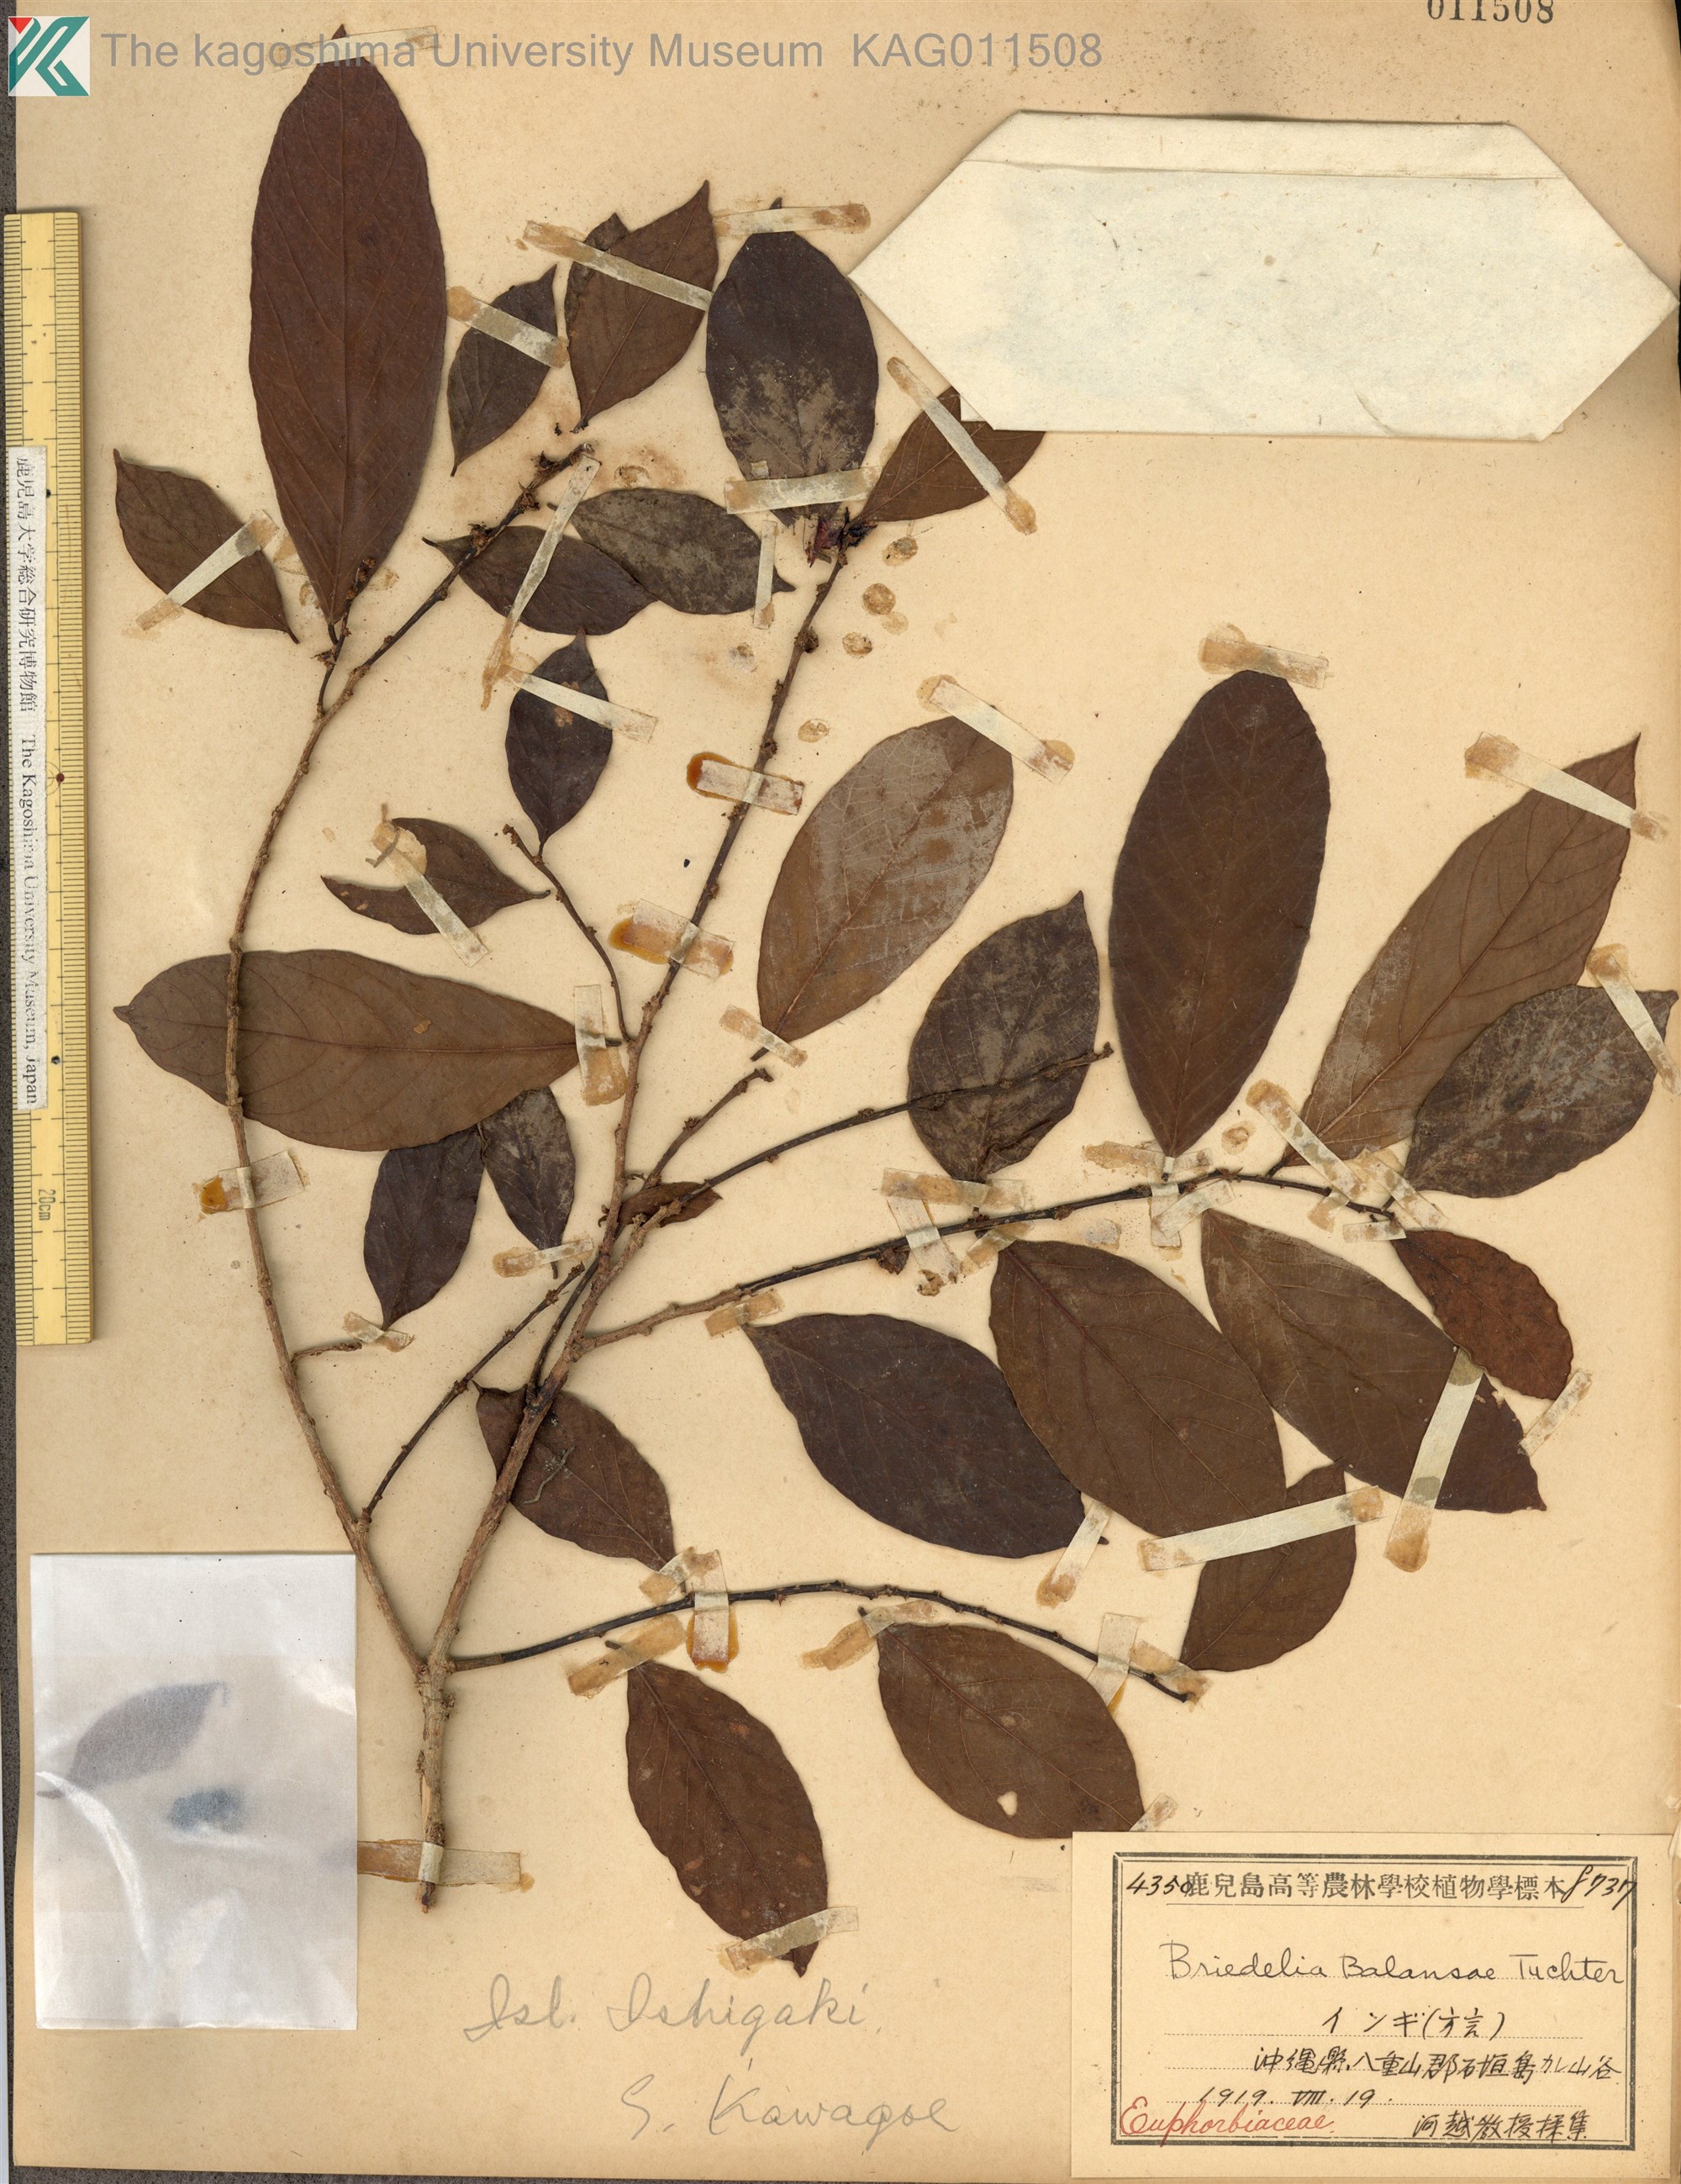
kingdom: Plantae
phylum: Tracheophyta
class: Magnoliopsida
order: Malpighiales
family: Phyllanthaceae
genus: Bridelia
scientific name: Bridelia balansae
